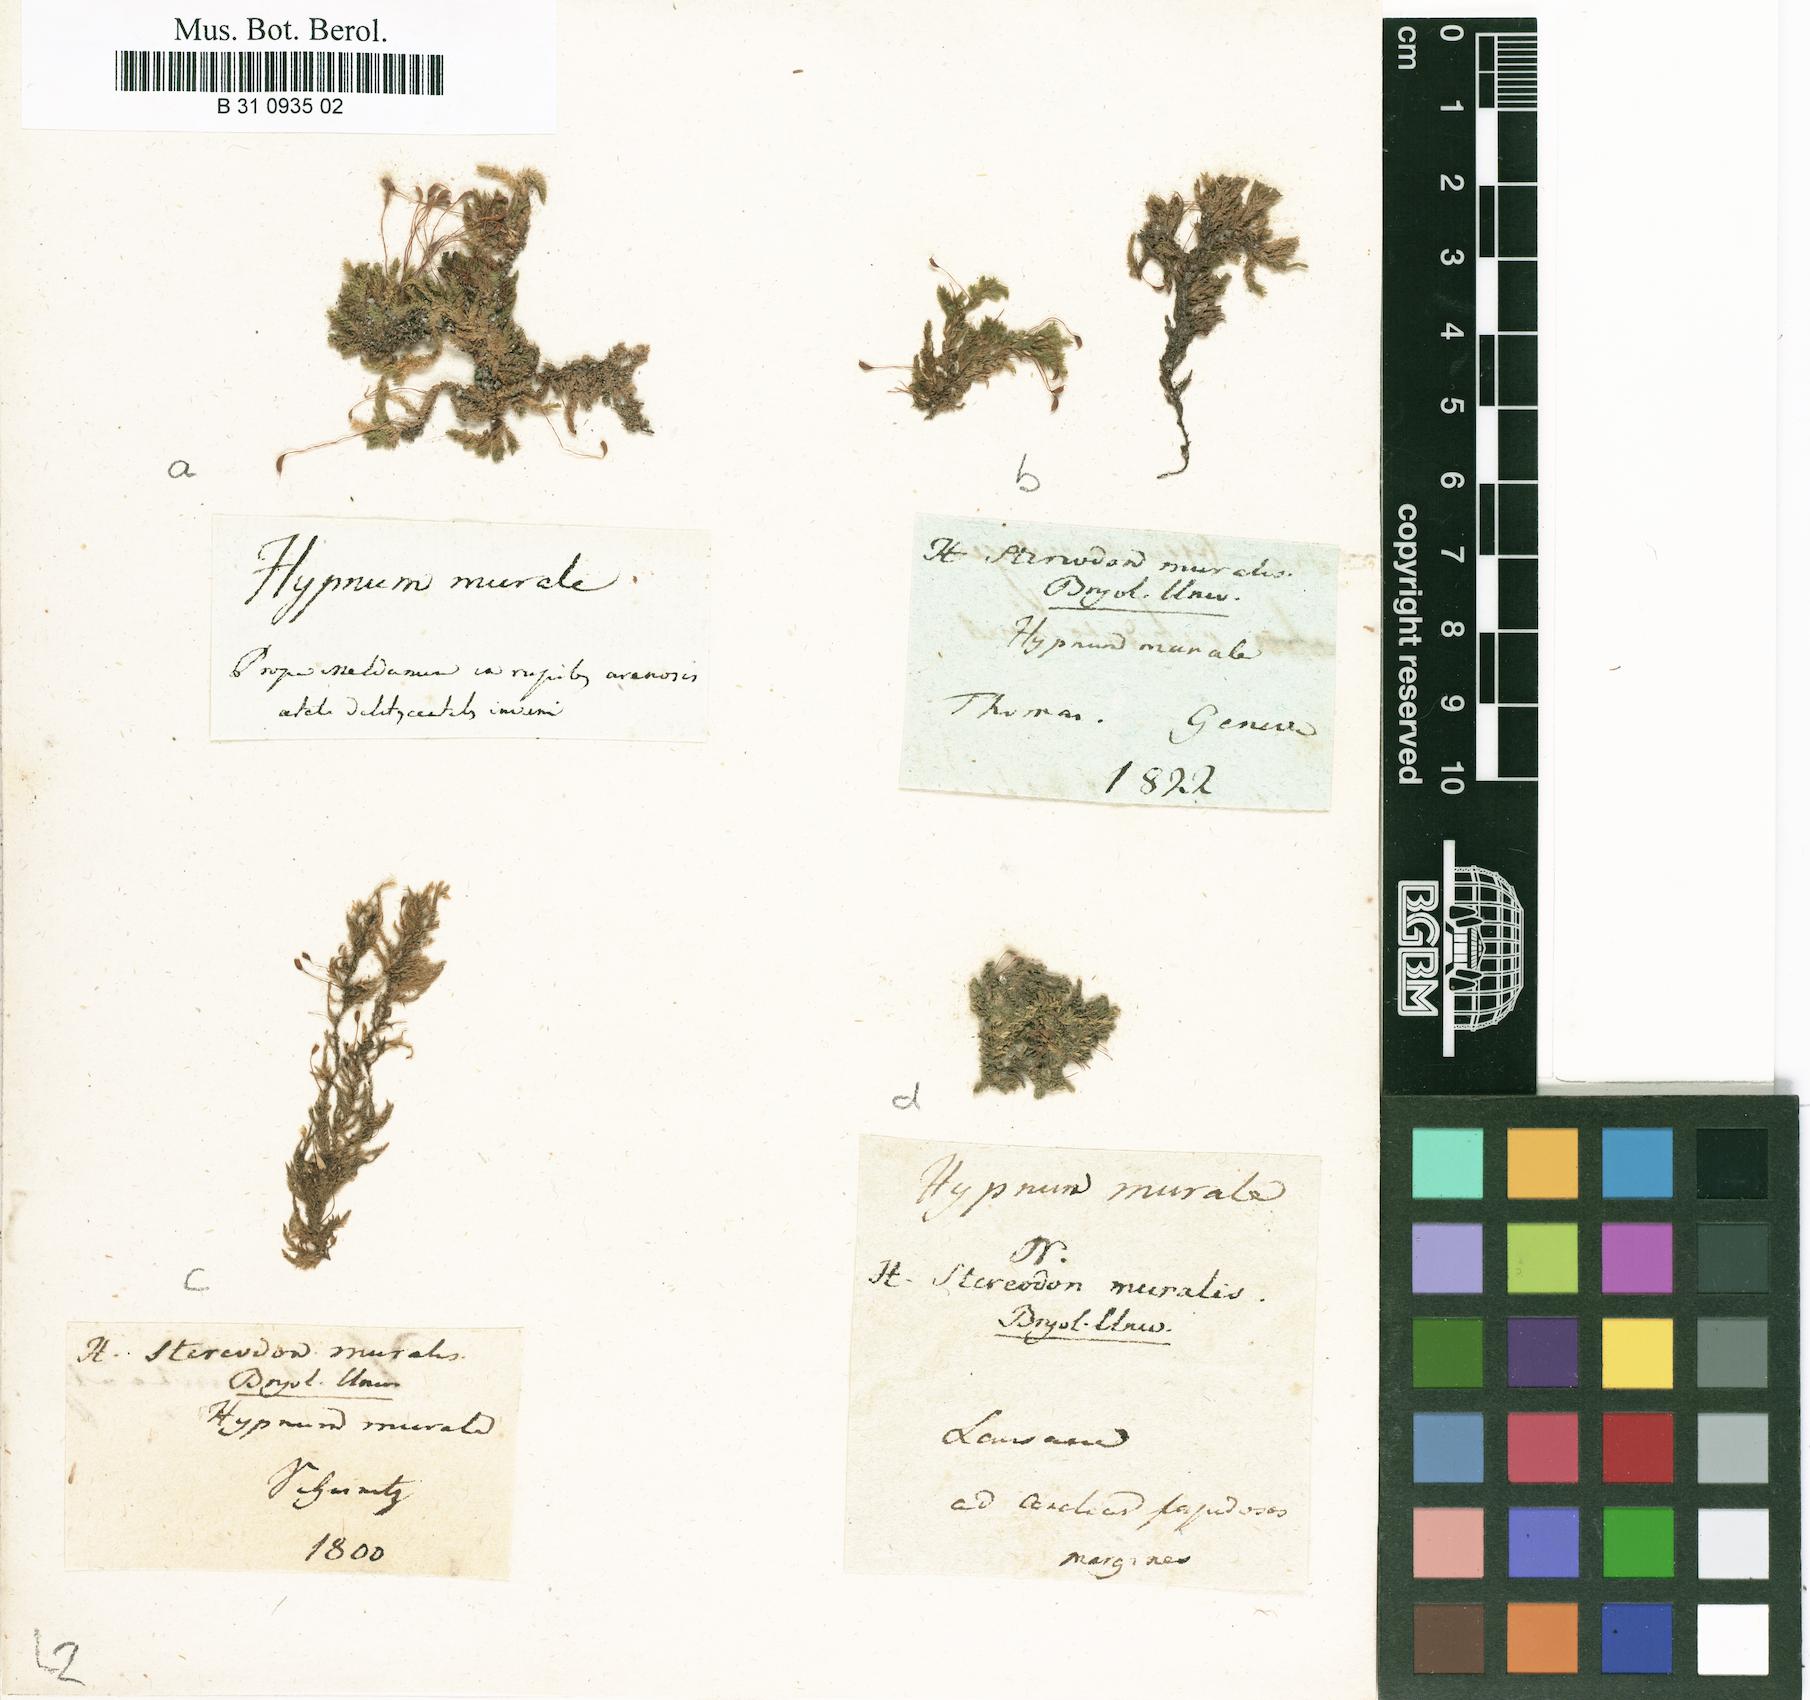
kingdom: Plantae
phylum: Bryophyta
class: Bryopsida
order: Hypnales
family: Brachytheciaceae
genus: Rhynchostegium
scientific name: Rhynchostegium murale
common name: Wall feather-moss
